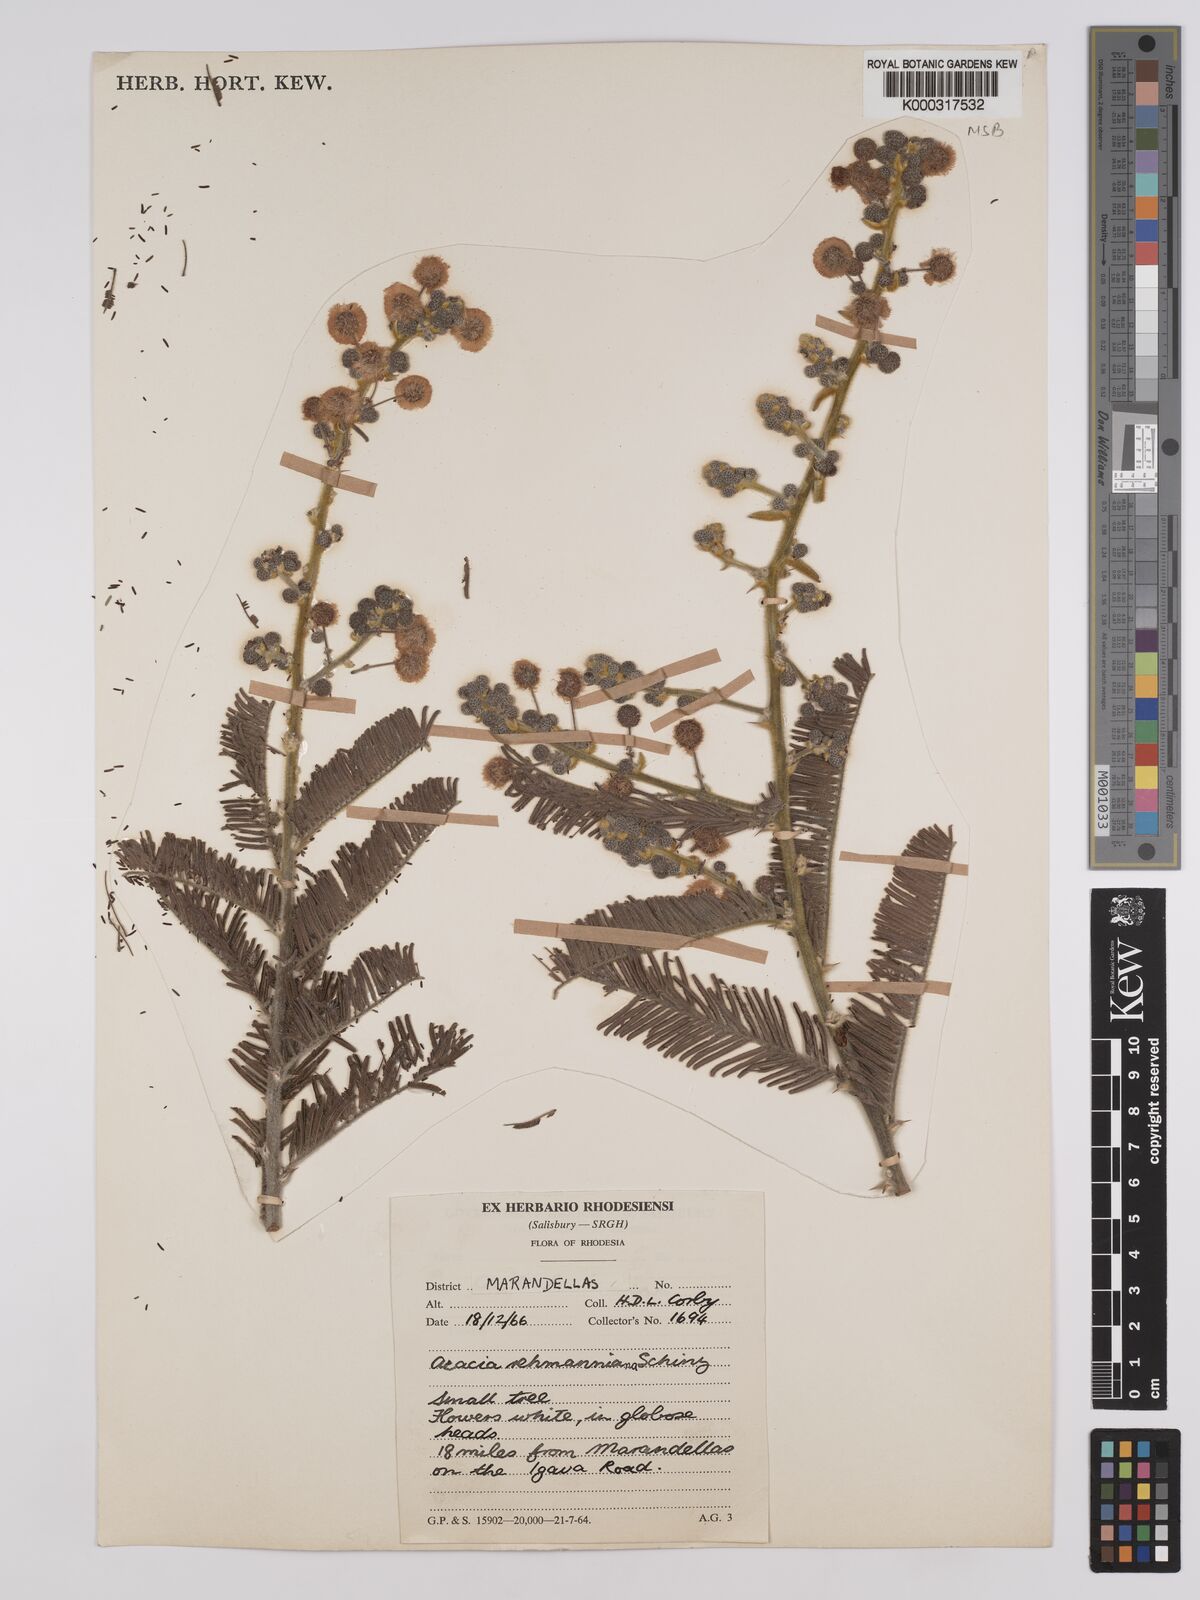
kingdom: Plantae
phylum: Tracheophyta
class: Magnoliopsida
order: Fabales
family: Fabaceae
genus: Vachellia
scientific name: Vachellia rehmanniana
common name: Silky thorn
